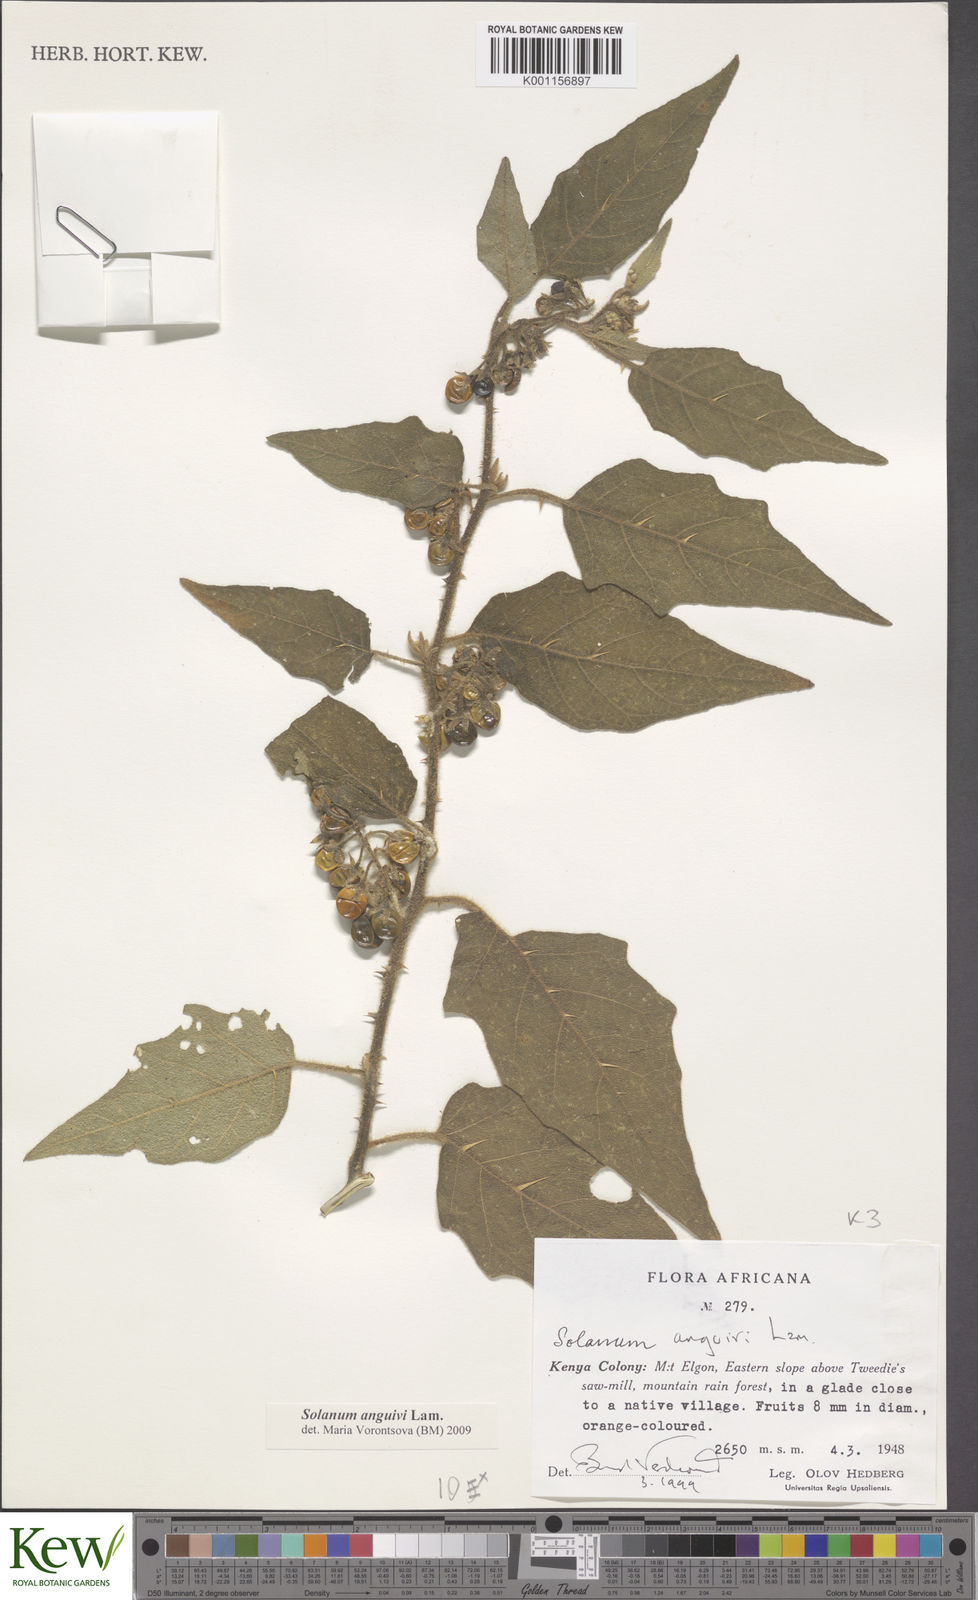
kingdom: Plantae
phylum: Tracheophyta
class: Magnoliopsida
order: Solanales
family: Solanaceae
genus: Solanum
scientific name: Solanum anguivi
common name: Forest bitterberry
